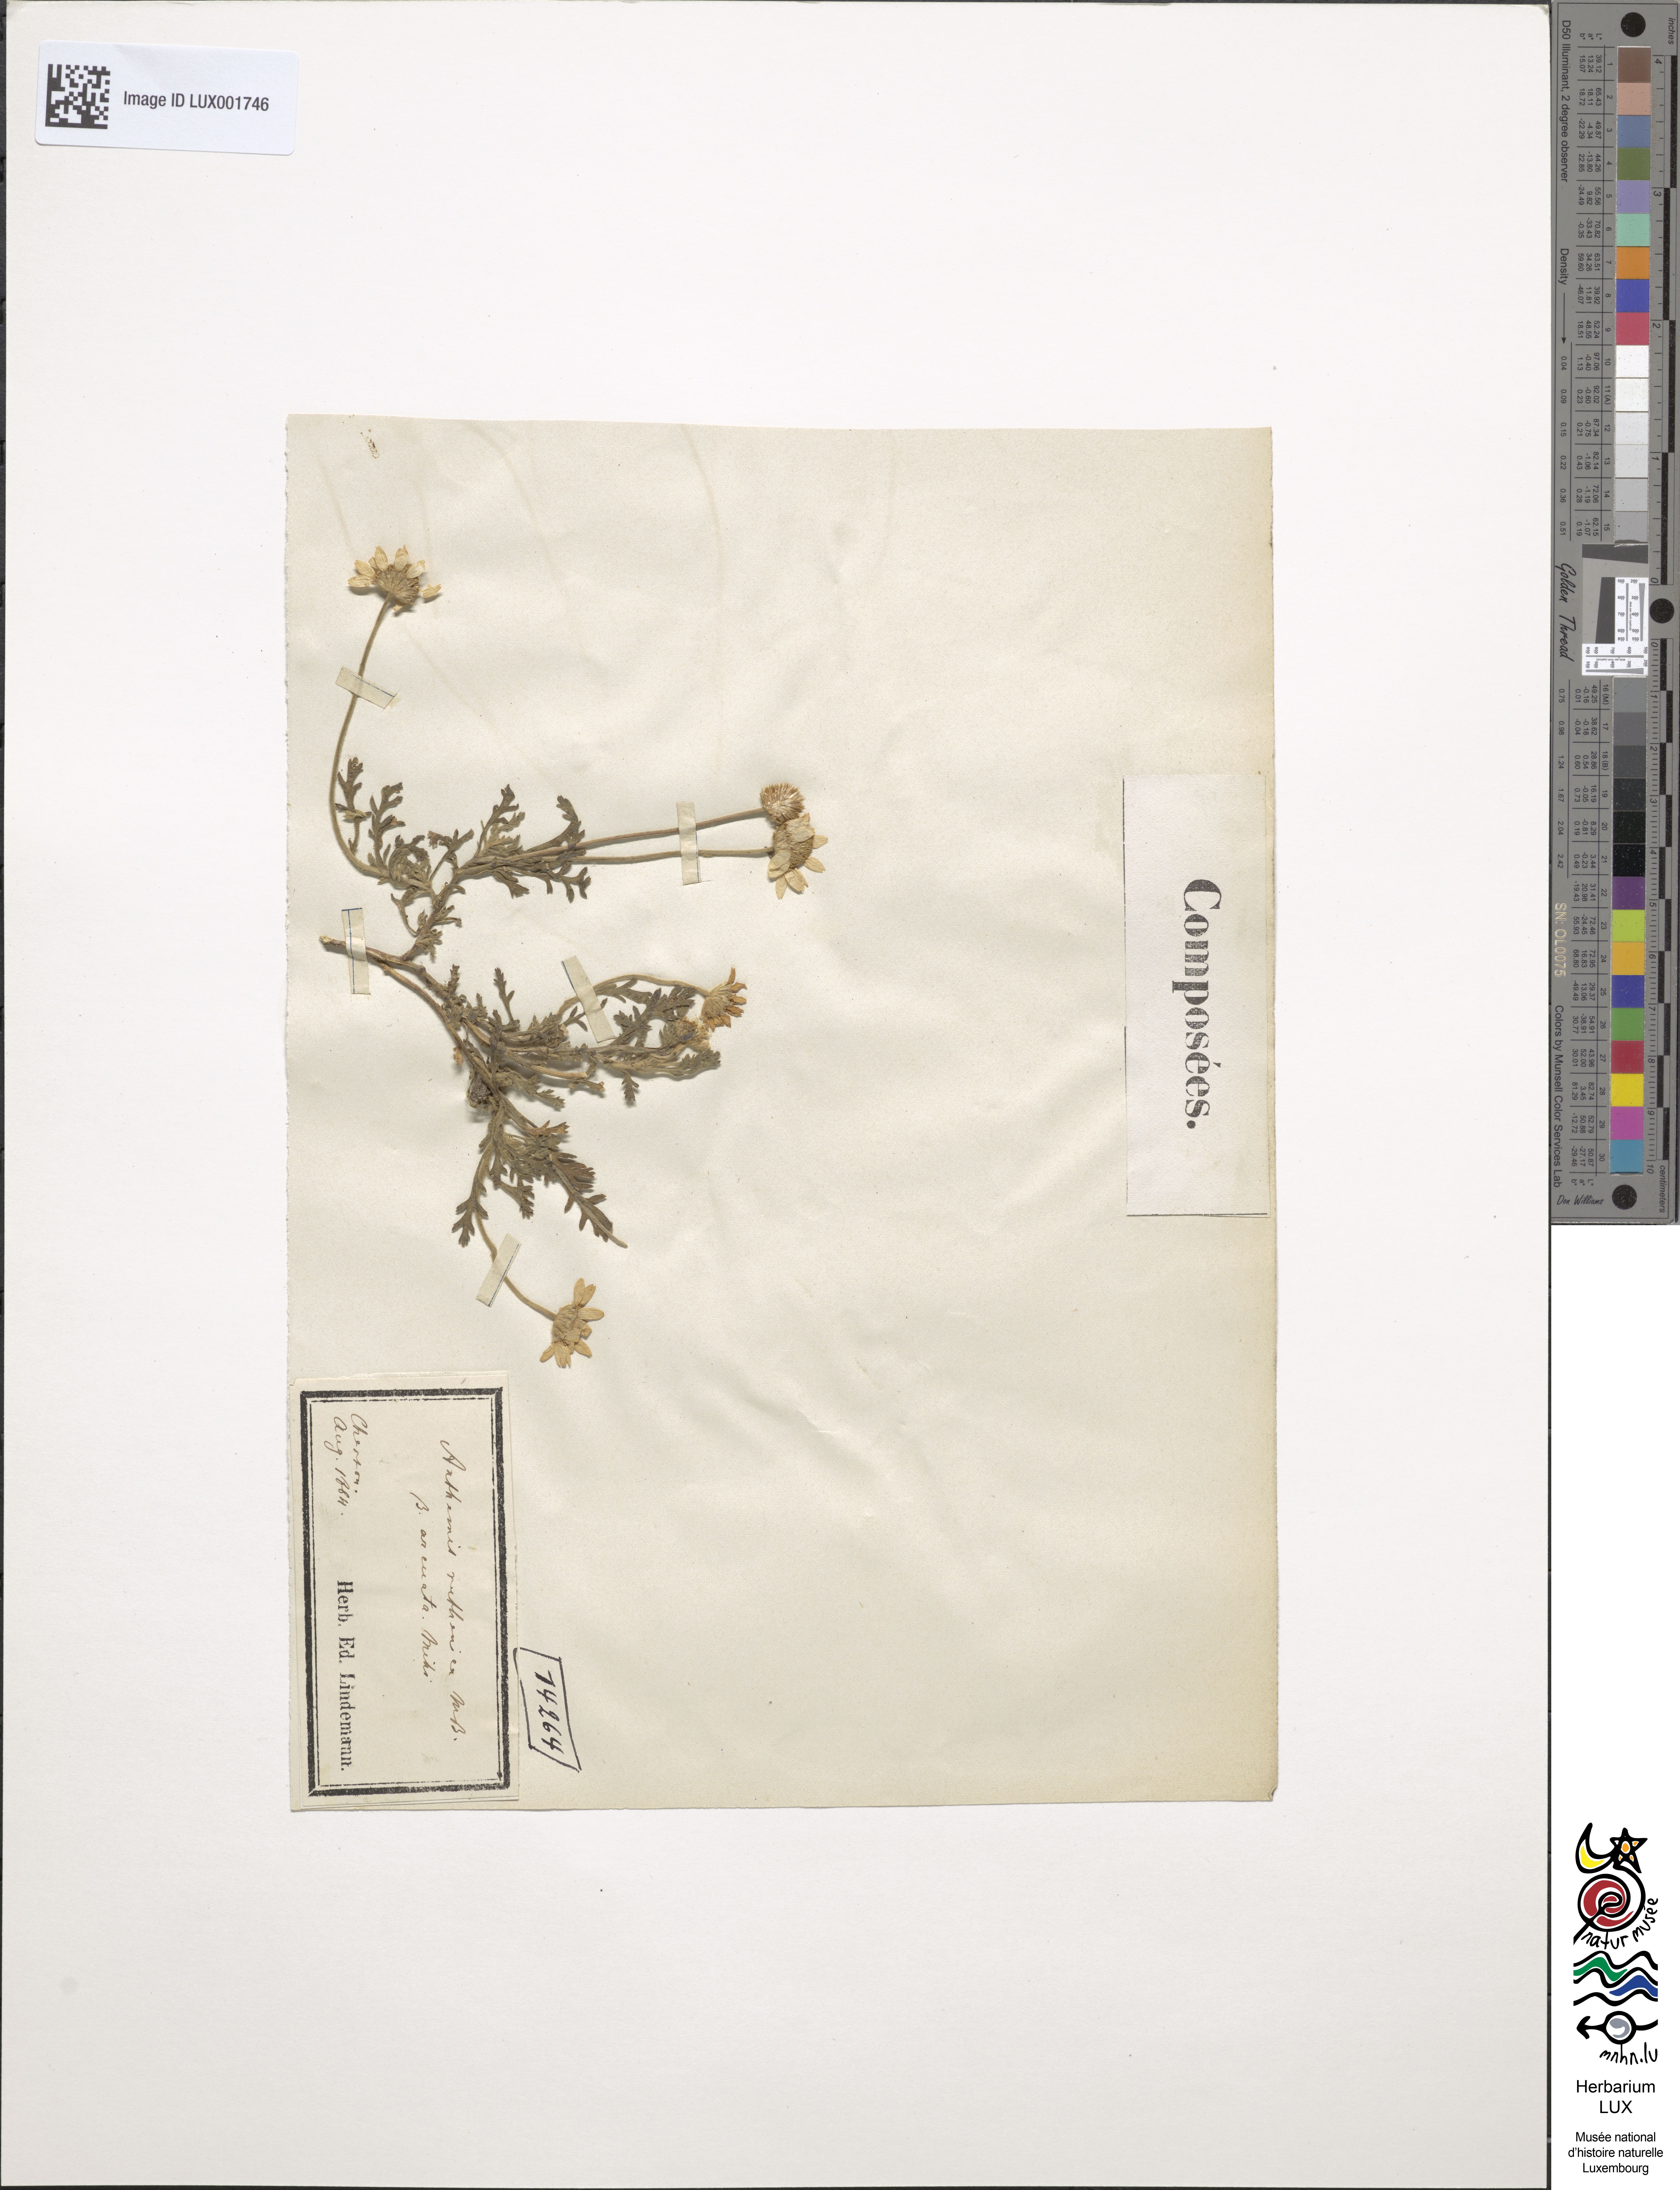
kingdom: Plantae
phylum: Tracheophyta
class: Magnoliopsida
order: Asterales
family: Asteraceae
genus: Anthemis
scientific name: Anthemis ruthenica
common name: Eastern chamomile
